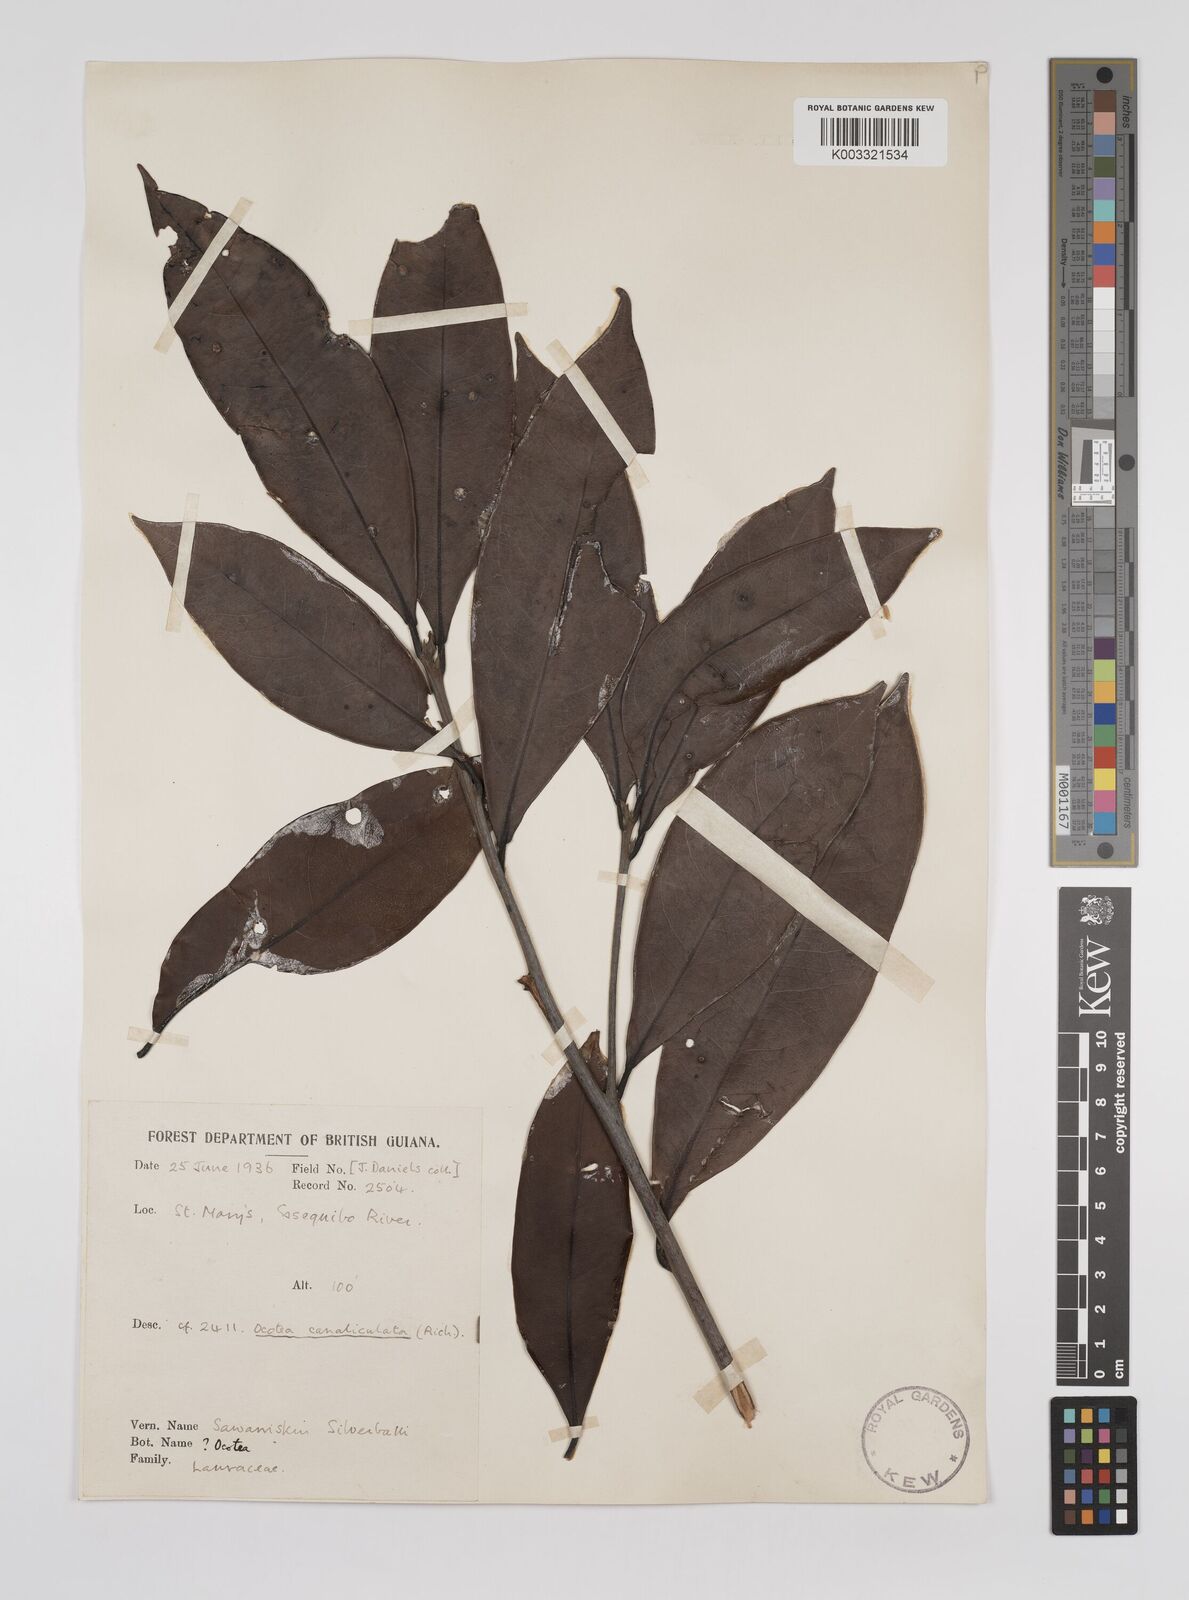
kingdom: Plantae
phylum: Tracheophyta
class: Magnoliopsida
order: Laurales
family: Lauraceae
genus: Ocotea
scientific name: Ocotea canaliculata
